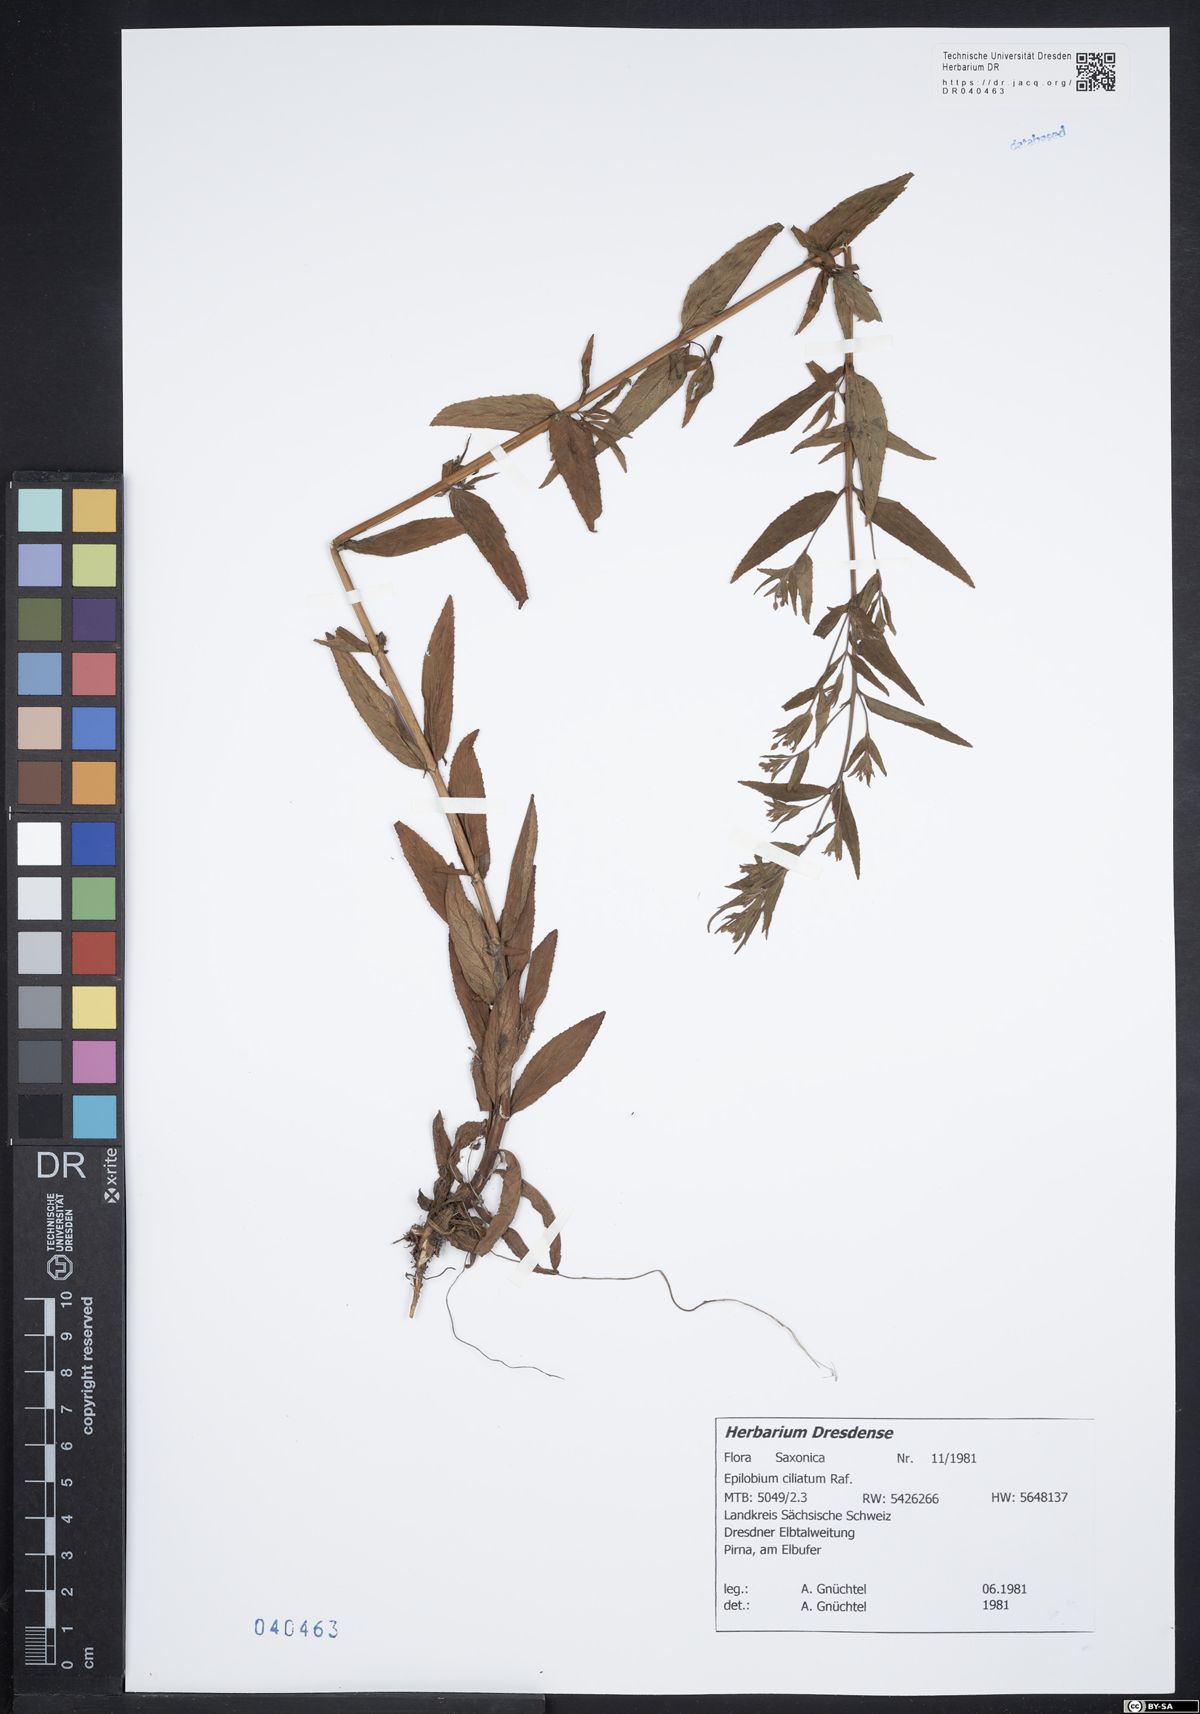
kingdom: Plantae
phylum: Tracheophyta
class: Magnoliopsida
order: Myrtales
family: Onagraceae
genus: Epilobium
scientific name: Epilobium ciliatum
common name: American willowherb
